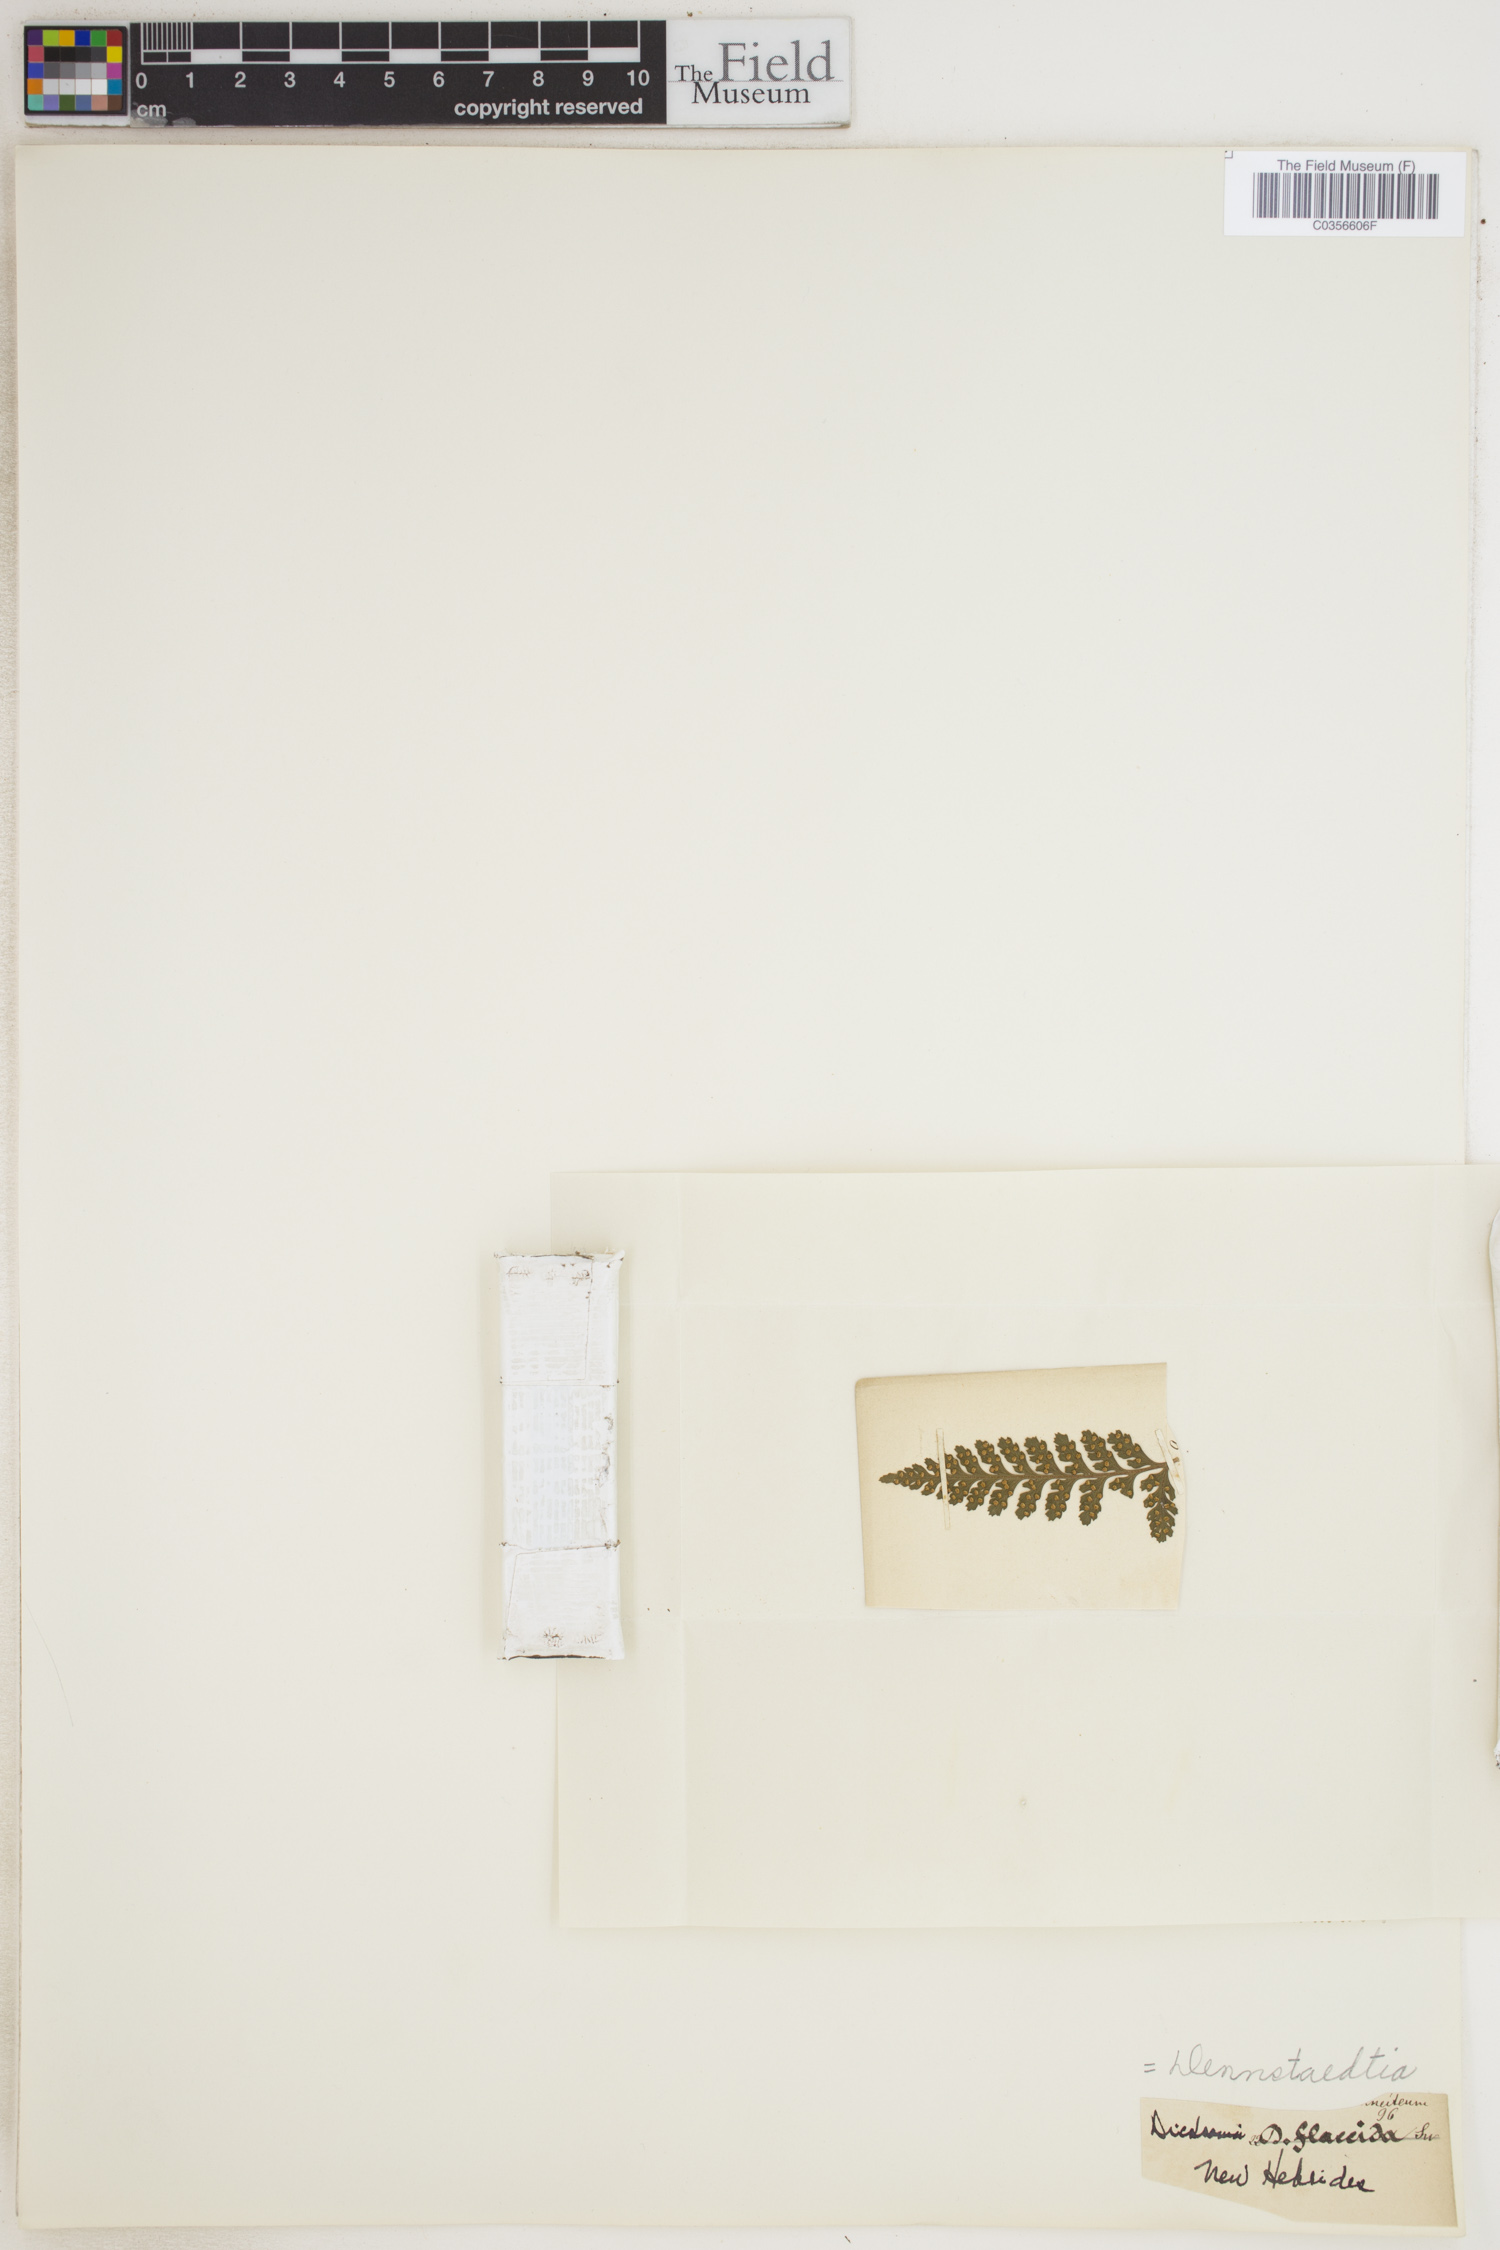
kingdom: Plantae
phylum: Tracheophyta
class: Polypodiopsida
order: Polypodiales
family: Dennstaedtiaceae
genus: Dennstaedtia
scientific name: Dennstaedtia flaccida
